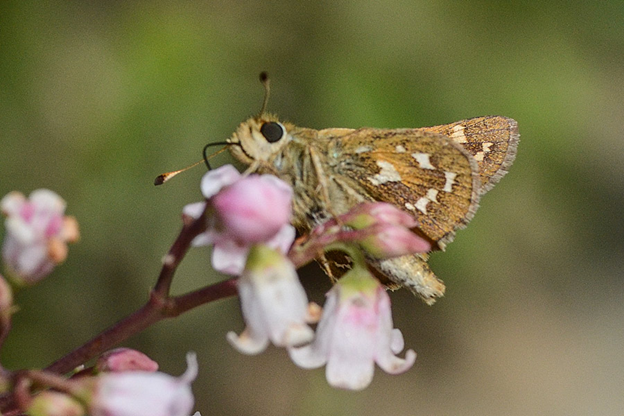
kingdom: Animalia
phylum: Arthropoda
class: Insecta
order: Lepidoptera
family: Hesperiidae
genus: Hesperia
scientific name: Hesperia comma
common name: Common Branded Skipper
